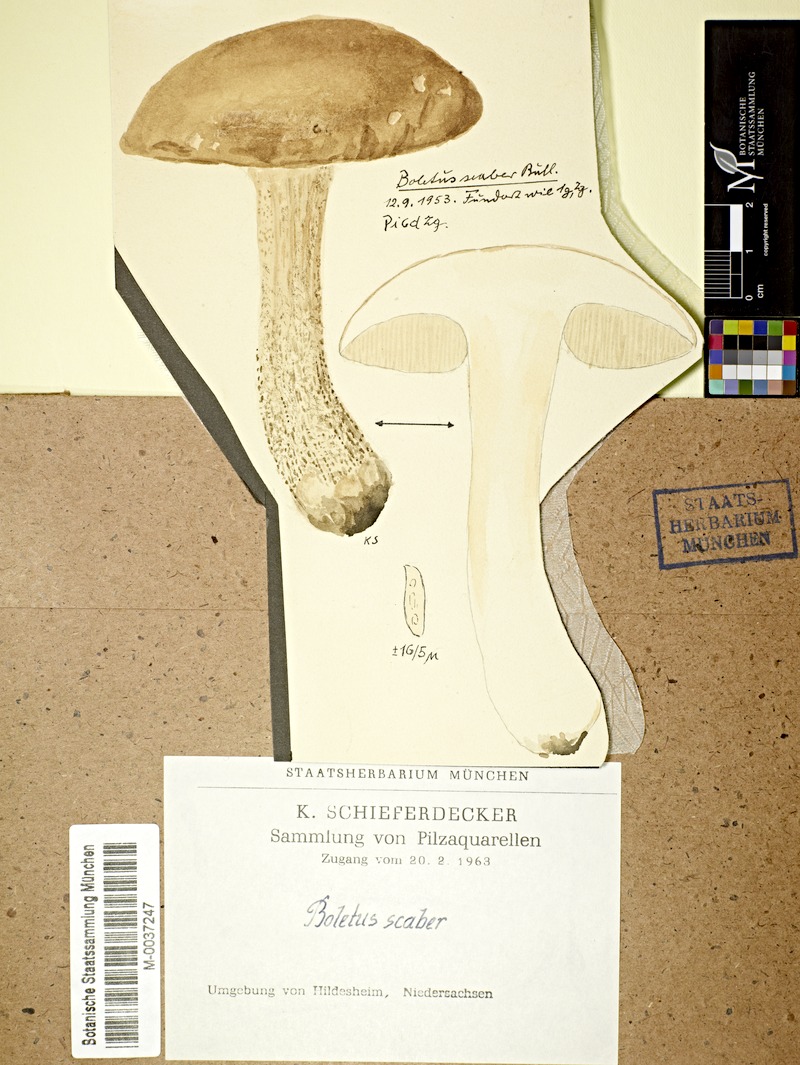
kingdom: Fungi
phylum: Basidiomycota
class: Agaricomycetes
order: Boletales
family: Boletaceae
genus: Leccinum
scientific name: Leccinum scabrum
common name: Blushing bolete
